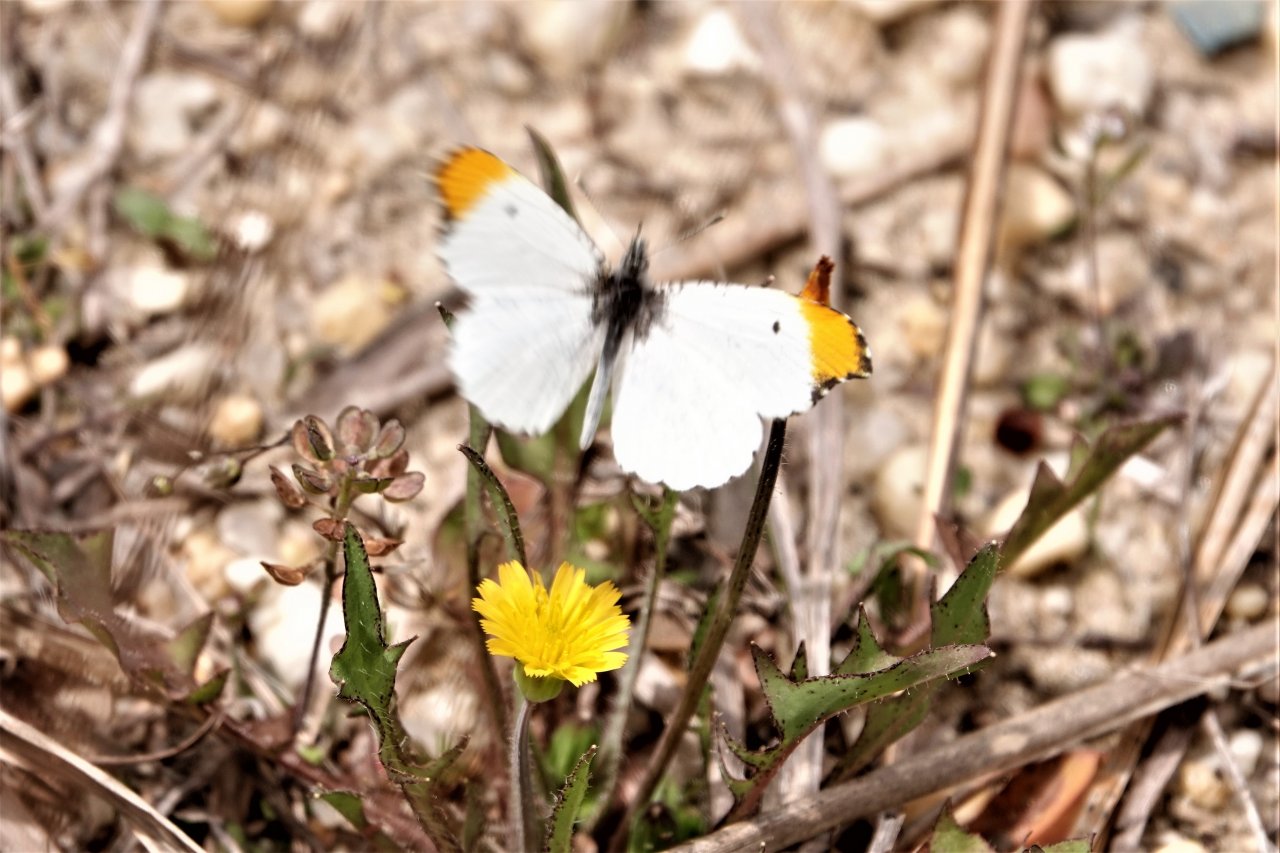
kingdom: Animalia
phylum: Arthropoda
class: Insecta
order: Lepidoptera
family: Pieridae
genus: Anthocharis
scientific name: Anthocharis midea
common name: Falcate Orangetip
